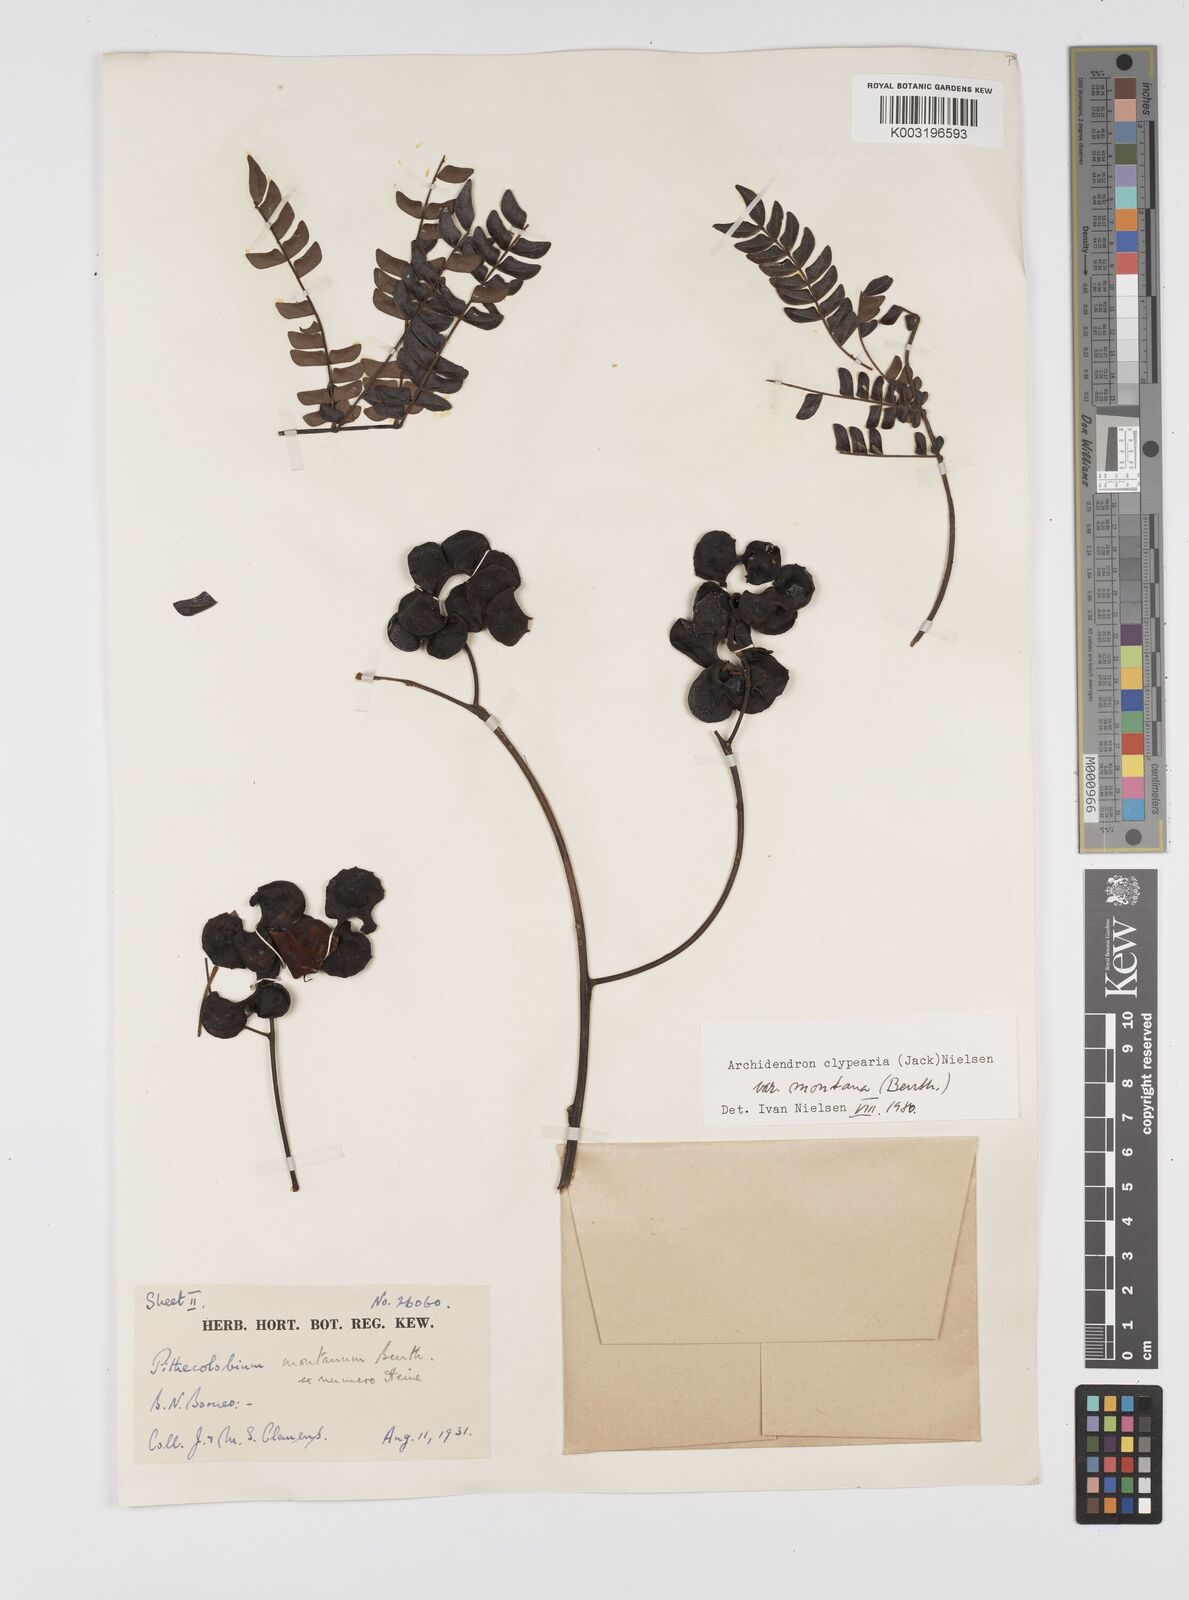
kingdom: Plantae
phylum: Tracheophyta
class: Magnoliopsida
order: Fabales
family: Fabaceae
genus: Archidendron
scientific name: Archidendron clypearia
